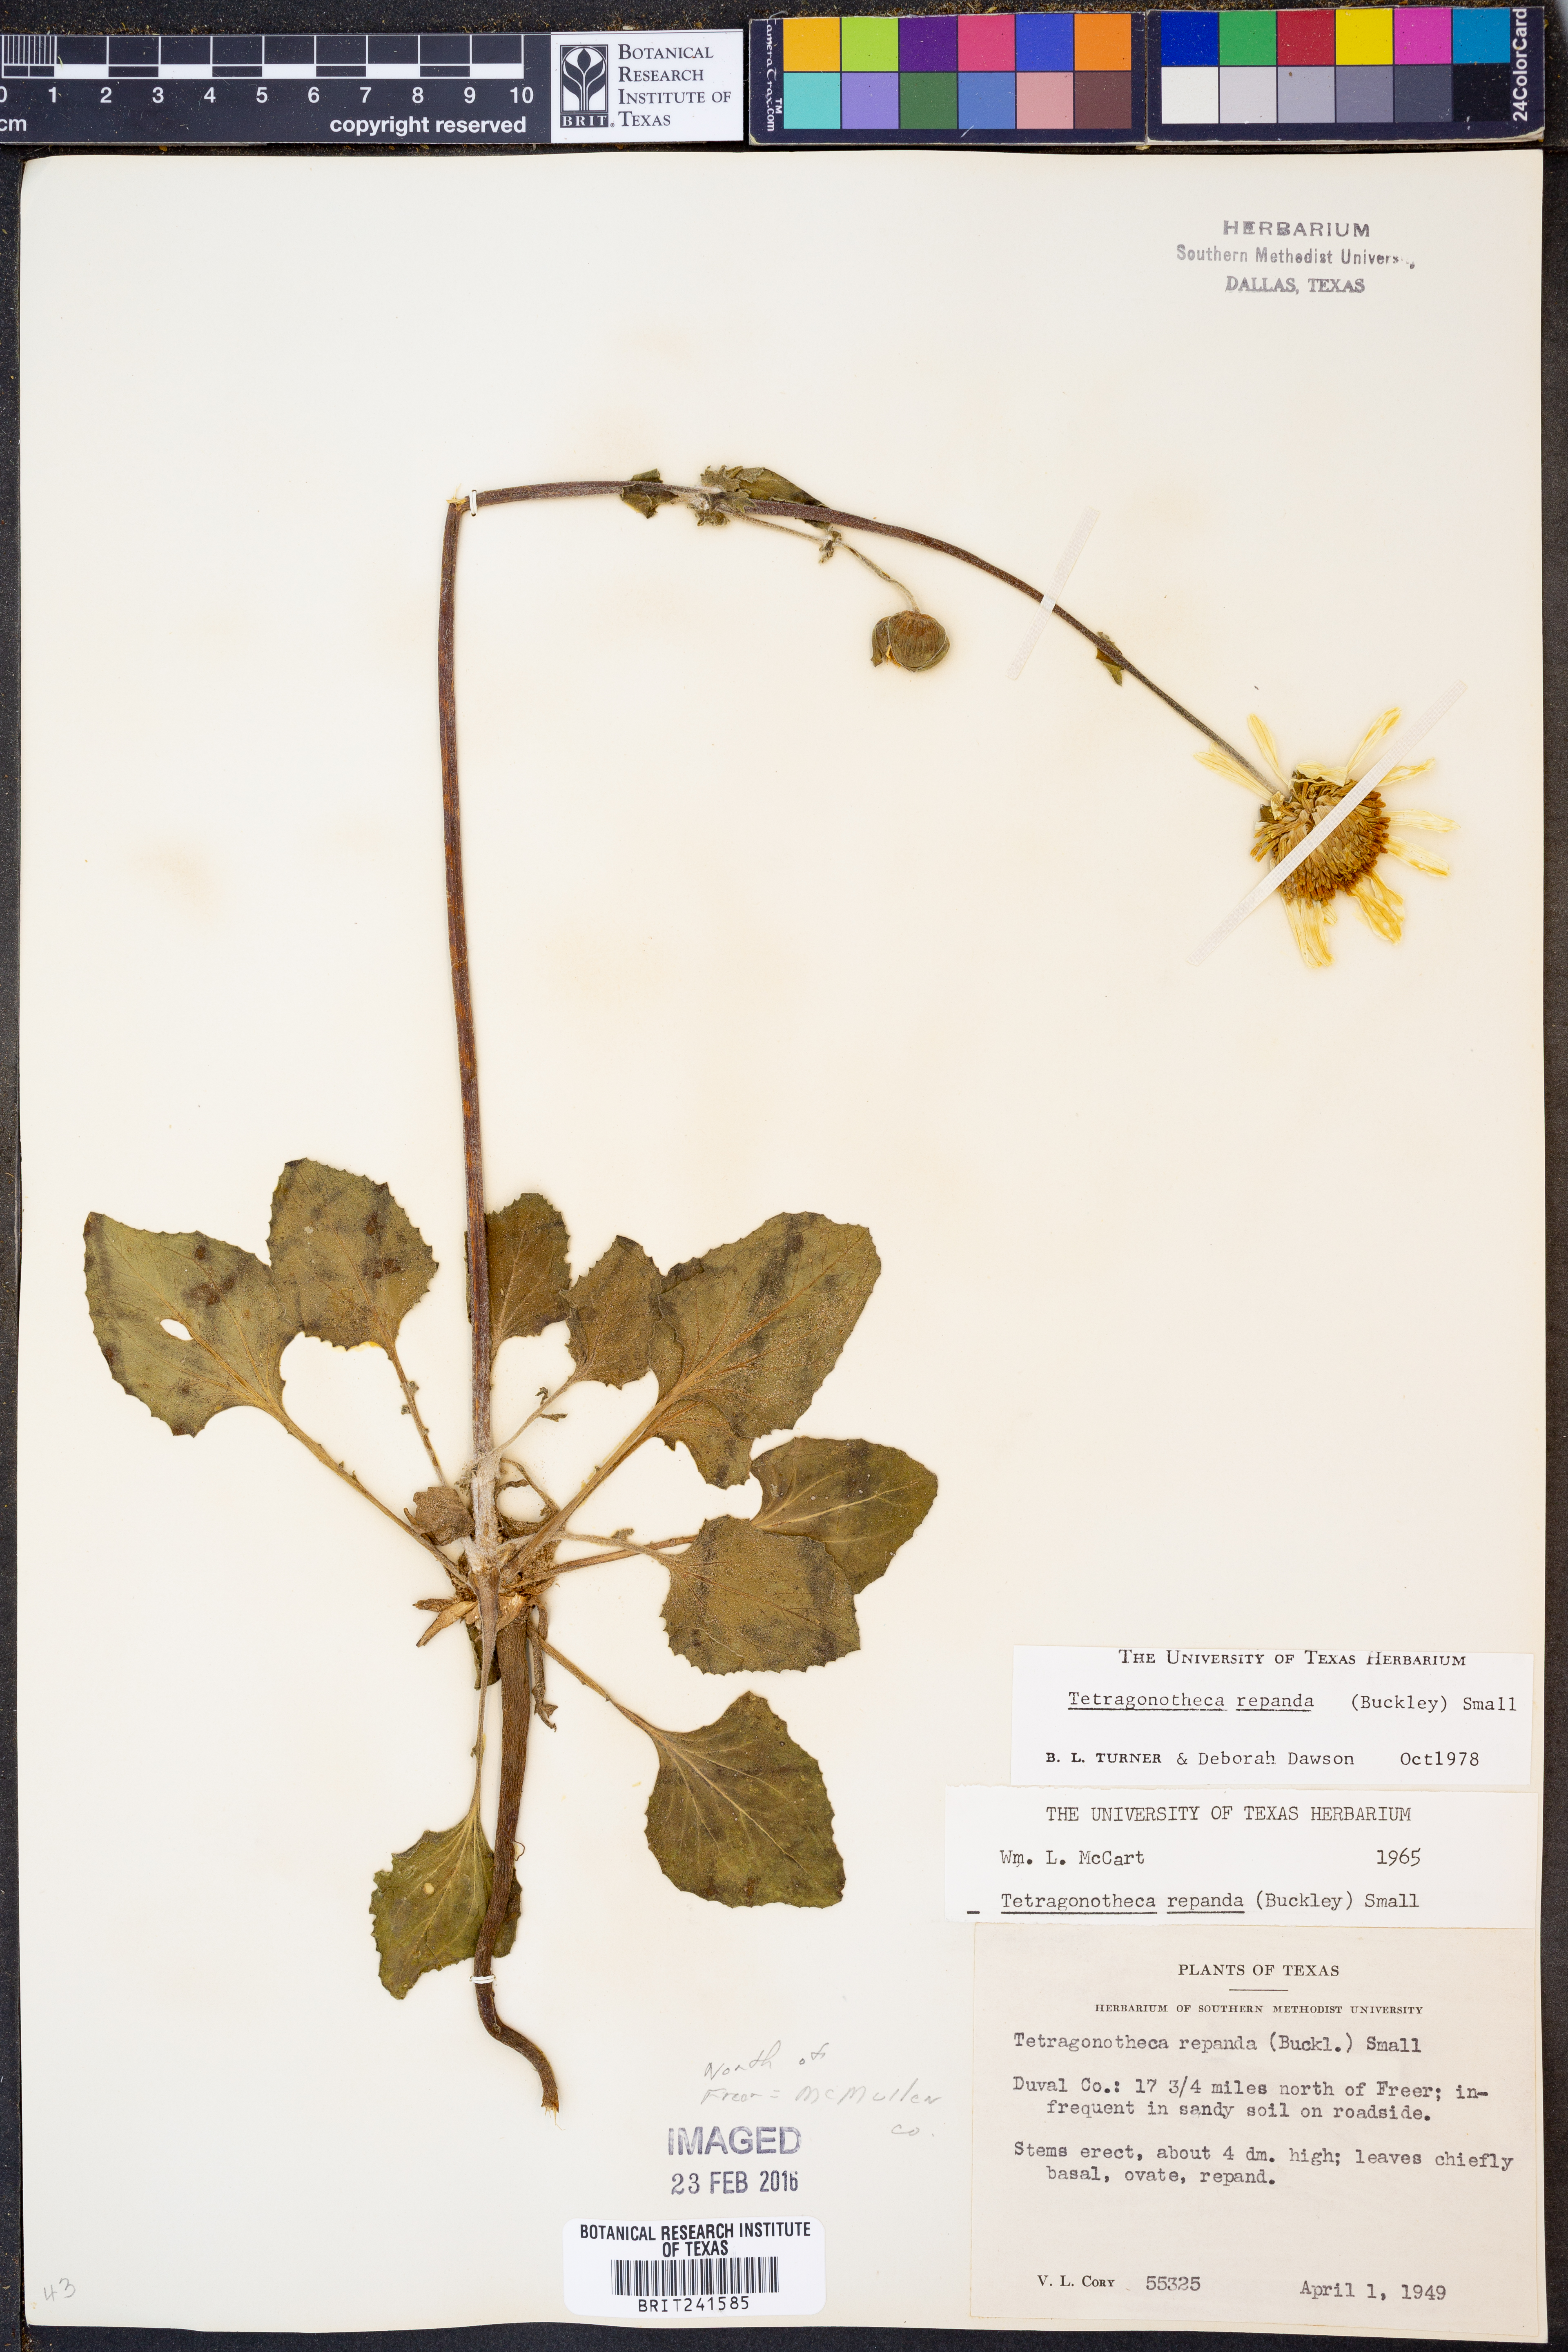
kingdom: Plantae
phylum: Tracheophyta
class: Magnoliopsida
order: Asterales
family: Asteraceae
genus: Tetragonotheca
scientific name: Tetragonotheca repanda
